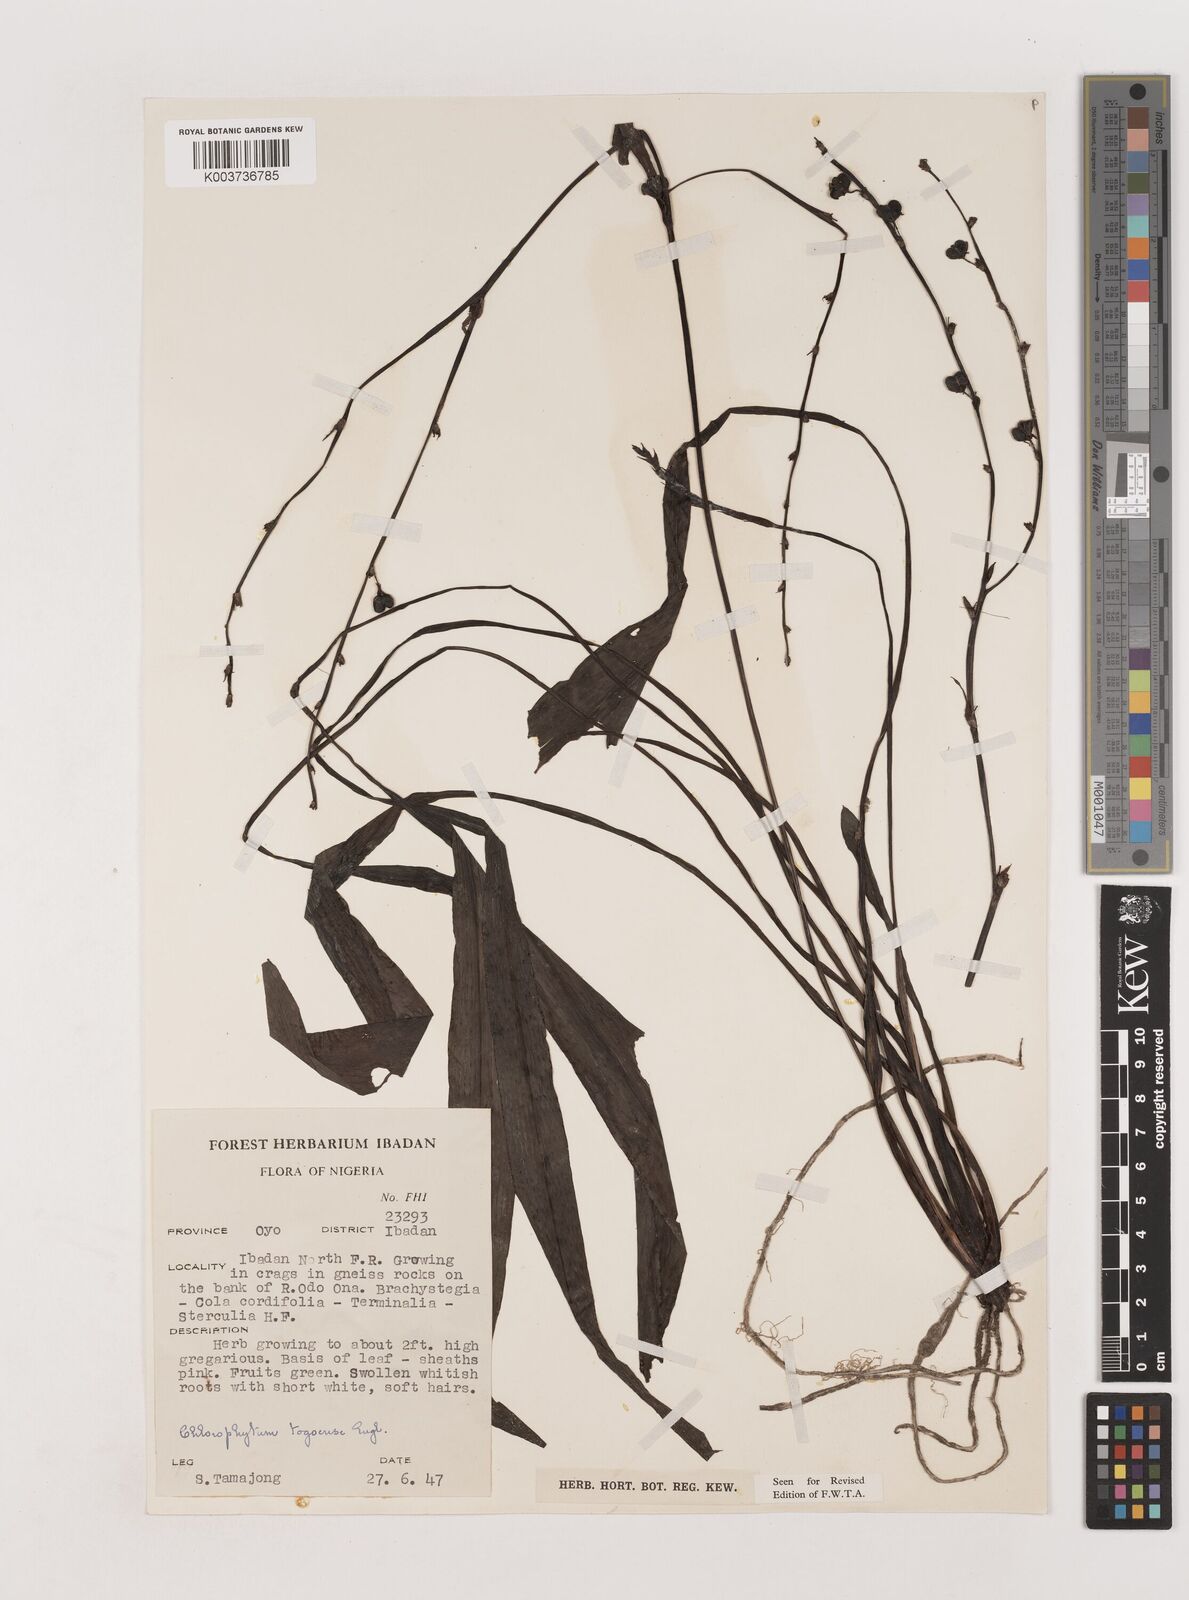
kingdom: Plantae
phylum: Tracheophyta
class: Liliopsida
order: Asparagales
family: Asparagaceae
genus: Chlorophytum
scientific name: Chlorophytum lancifolium
